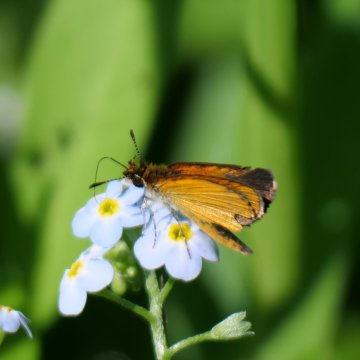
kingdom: Animalia
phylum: Arthropoda
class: Insecta
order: Lepidoptera
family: Hesperiidae
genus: Ancyloxypha
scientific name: Ancyloxypha numitor
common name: Least Skipper
